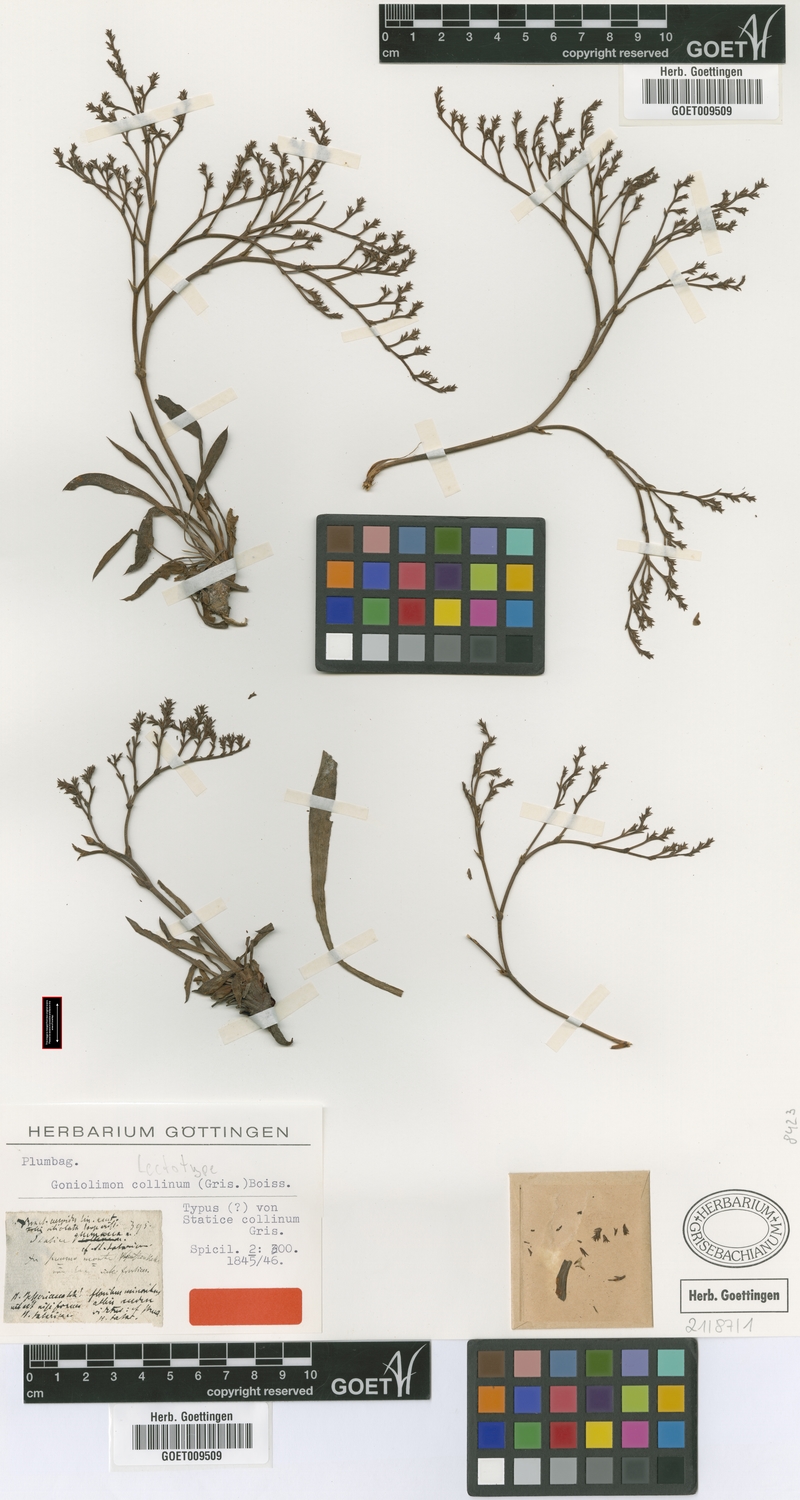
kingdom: Plantae
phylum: Tracheophyta
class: Magnoliopsida
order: Caryophyllales
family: Plumbaginaceae
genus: Goniolimon
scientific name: Goniolimon incanum
